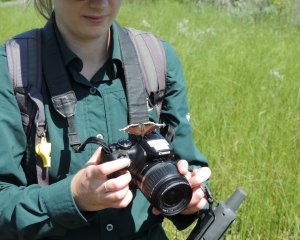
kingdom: Animalia
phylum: Arthropoda
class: Insecta
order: Lepidoptera
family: Nymphalidae
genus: Nymphalis
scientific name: Nymphalis antiopa
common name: Mourning Cloak
